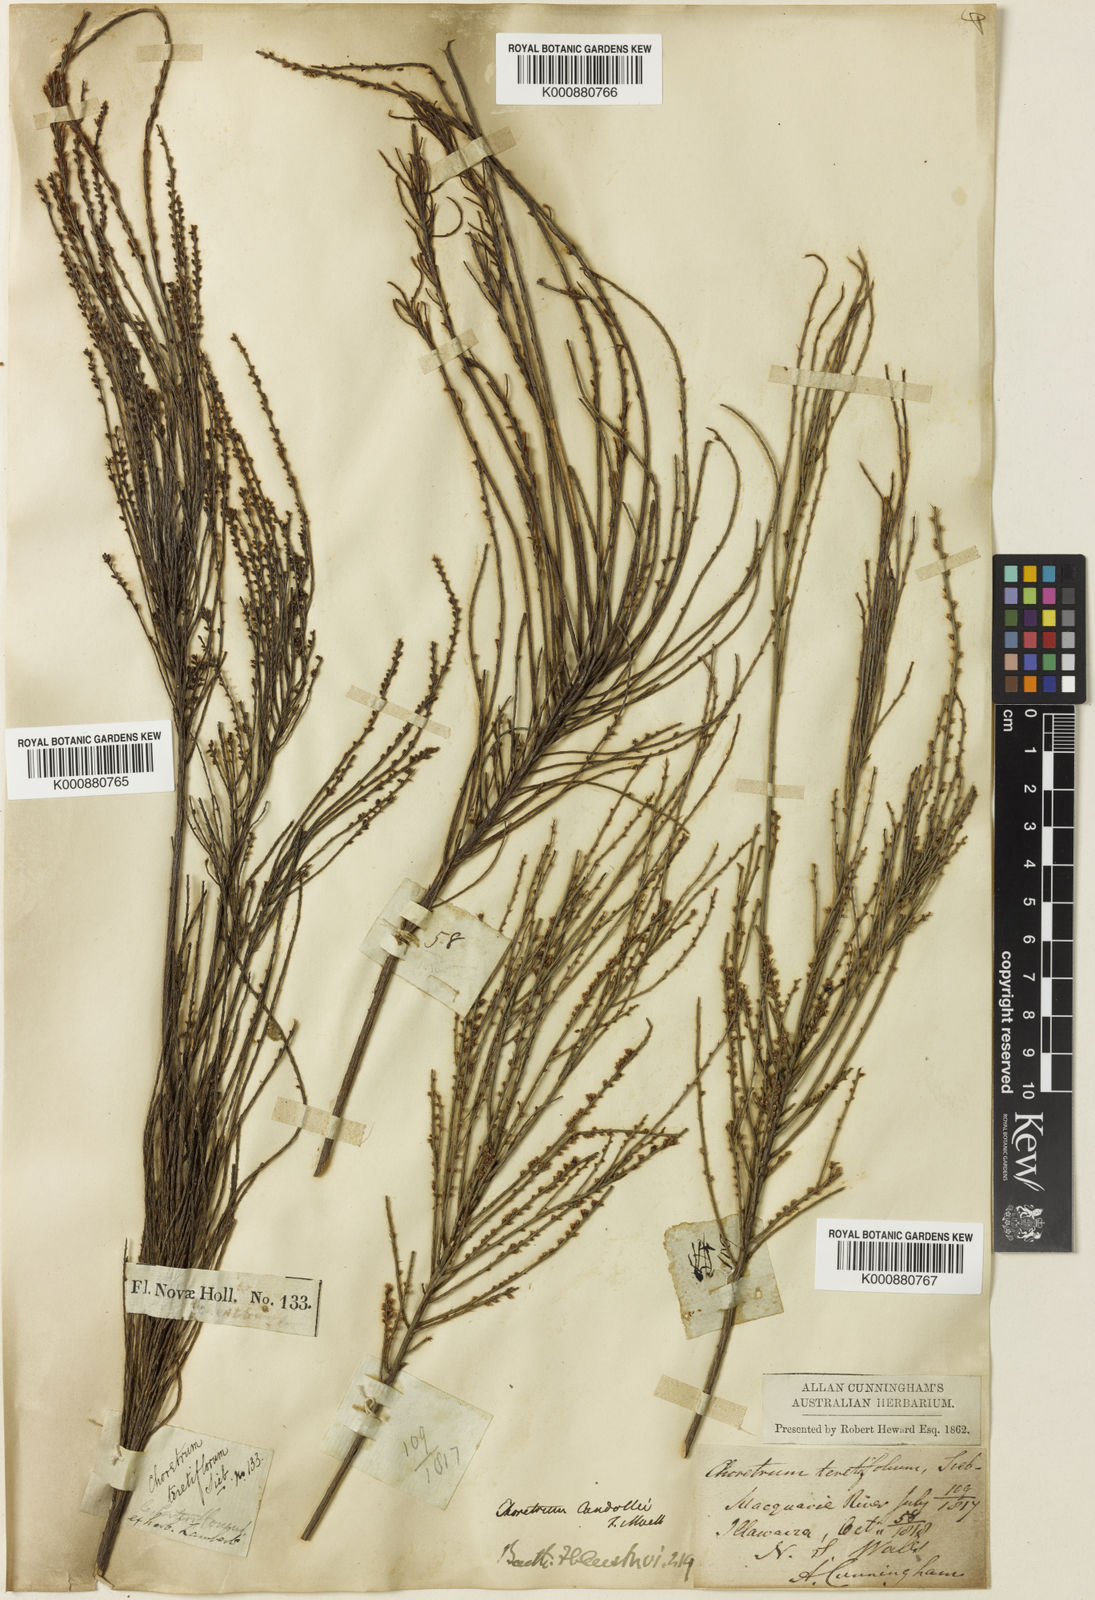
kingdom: Plantae
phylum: Tracheophyta
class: Magnoliopsida
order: Santalales
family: Amphorogynaceae
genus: Choretrum
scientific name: Choretrum candollei
